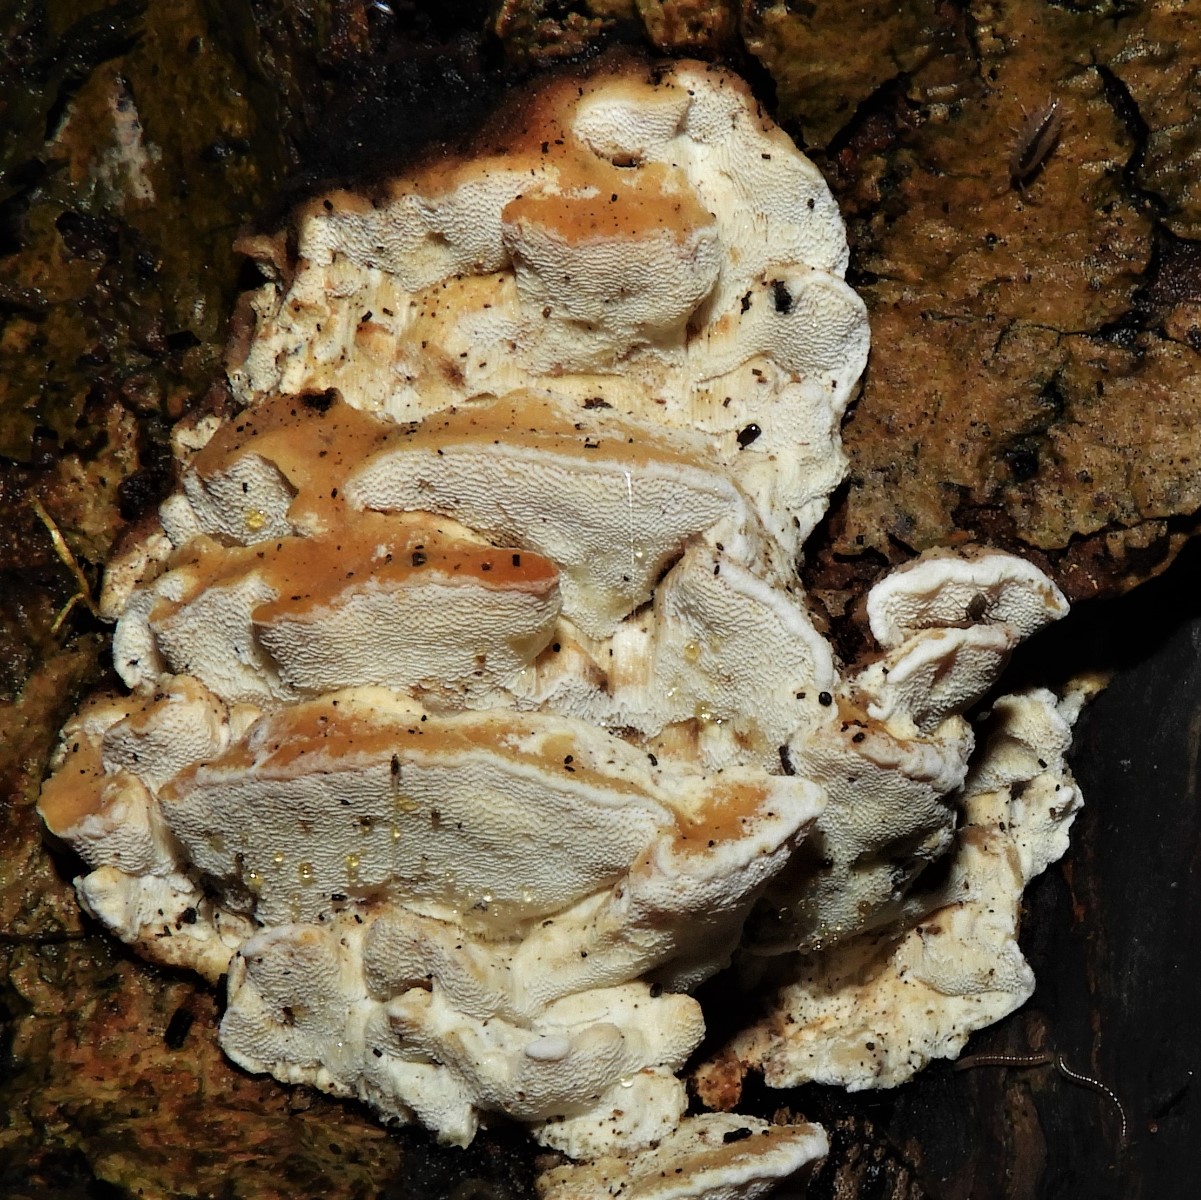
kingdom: Fungi
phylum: Basidiomycota
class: Agaricomycetes
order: Polyporales
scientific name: Polyporales
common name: poresvampordenen
